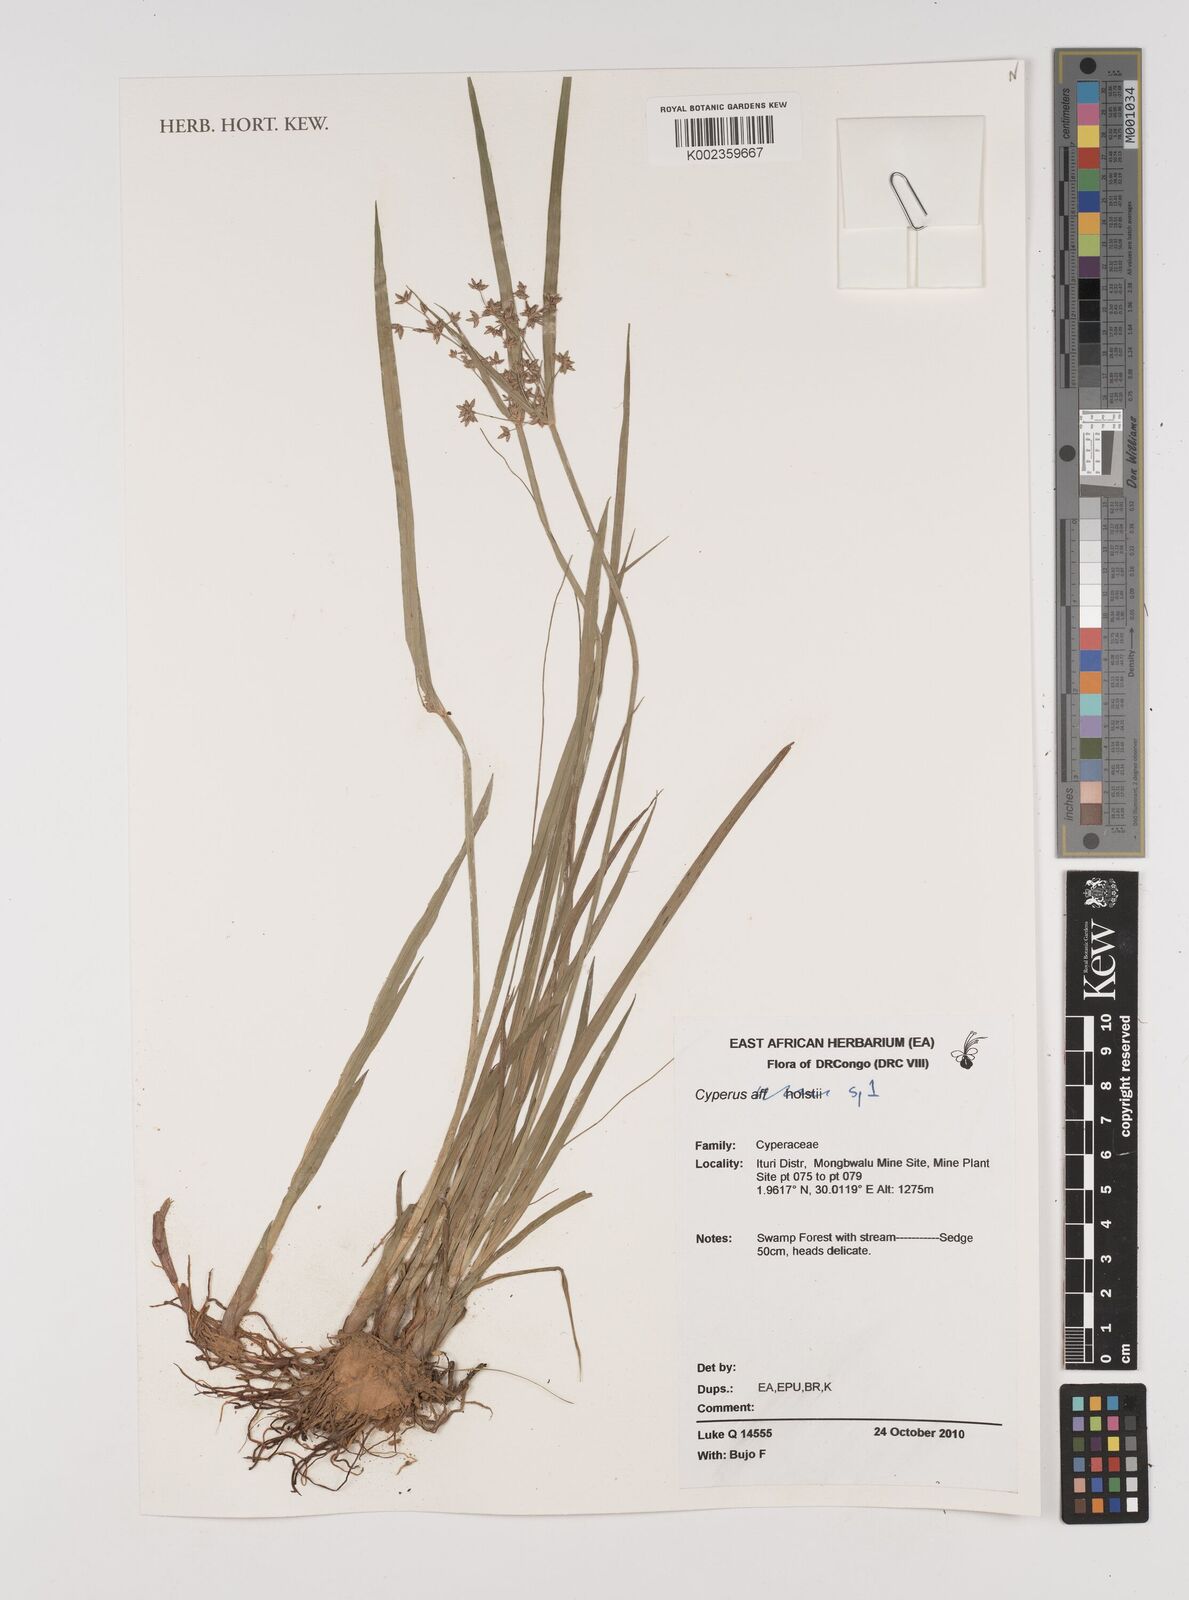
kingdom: Plantae
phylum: Tracheophyta
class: Liliopsida
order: Poales
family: Cyperaceae
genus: Cyperus
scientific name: Cyperus
